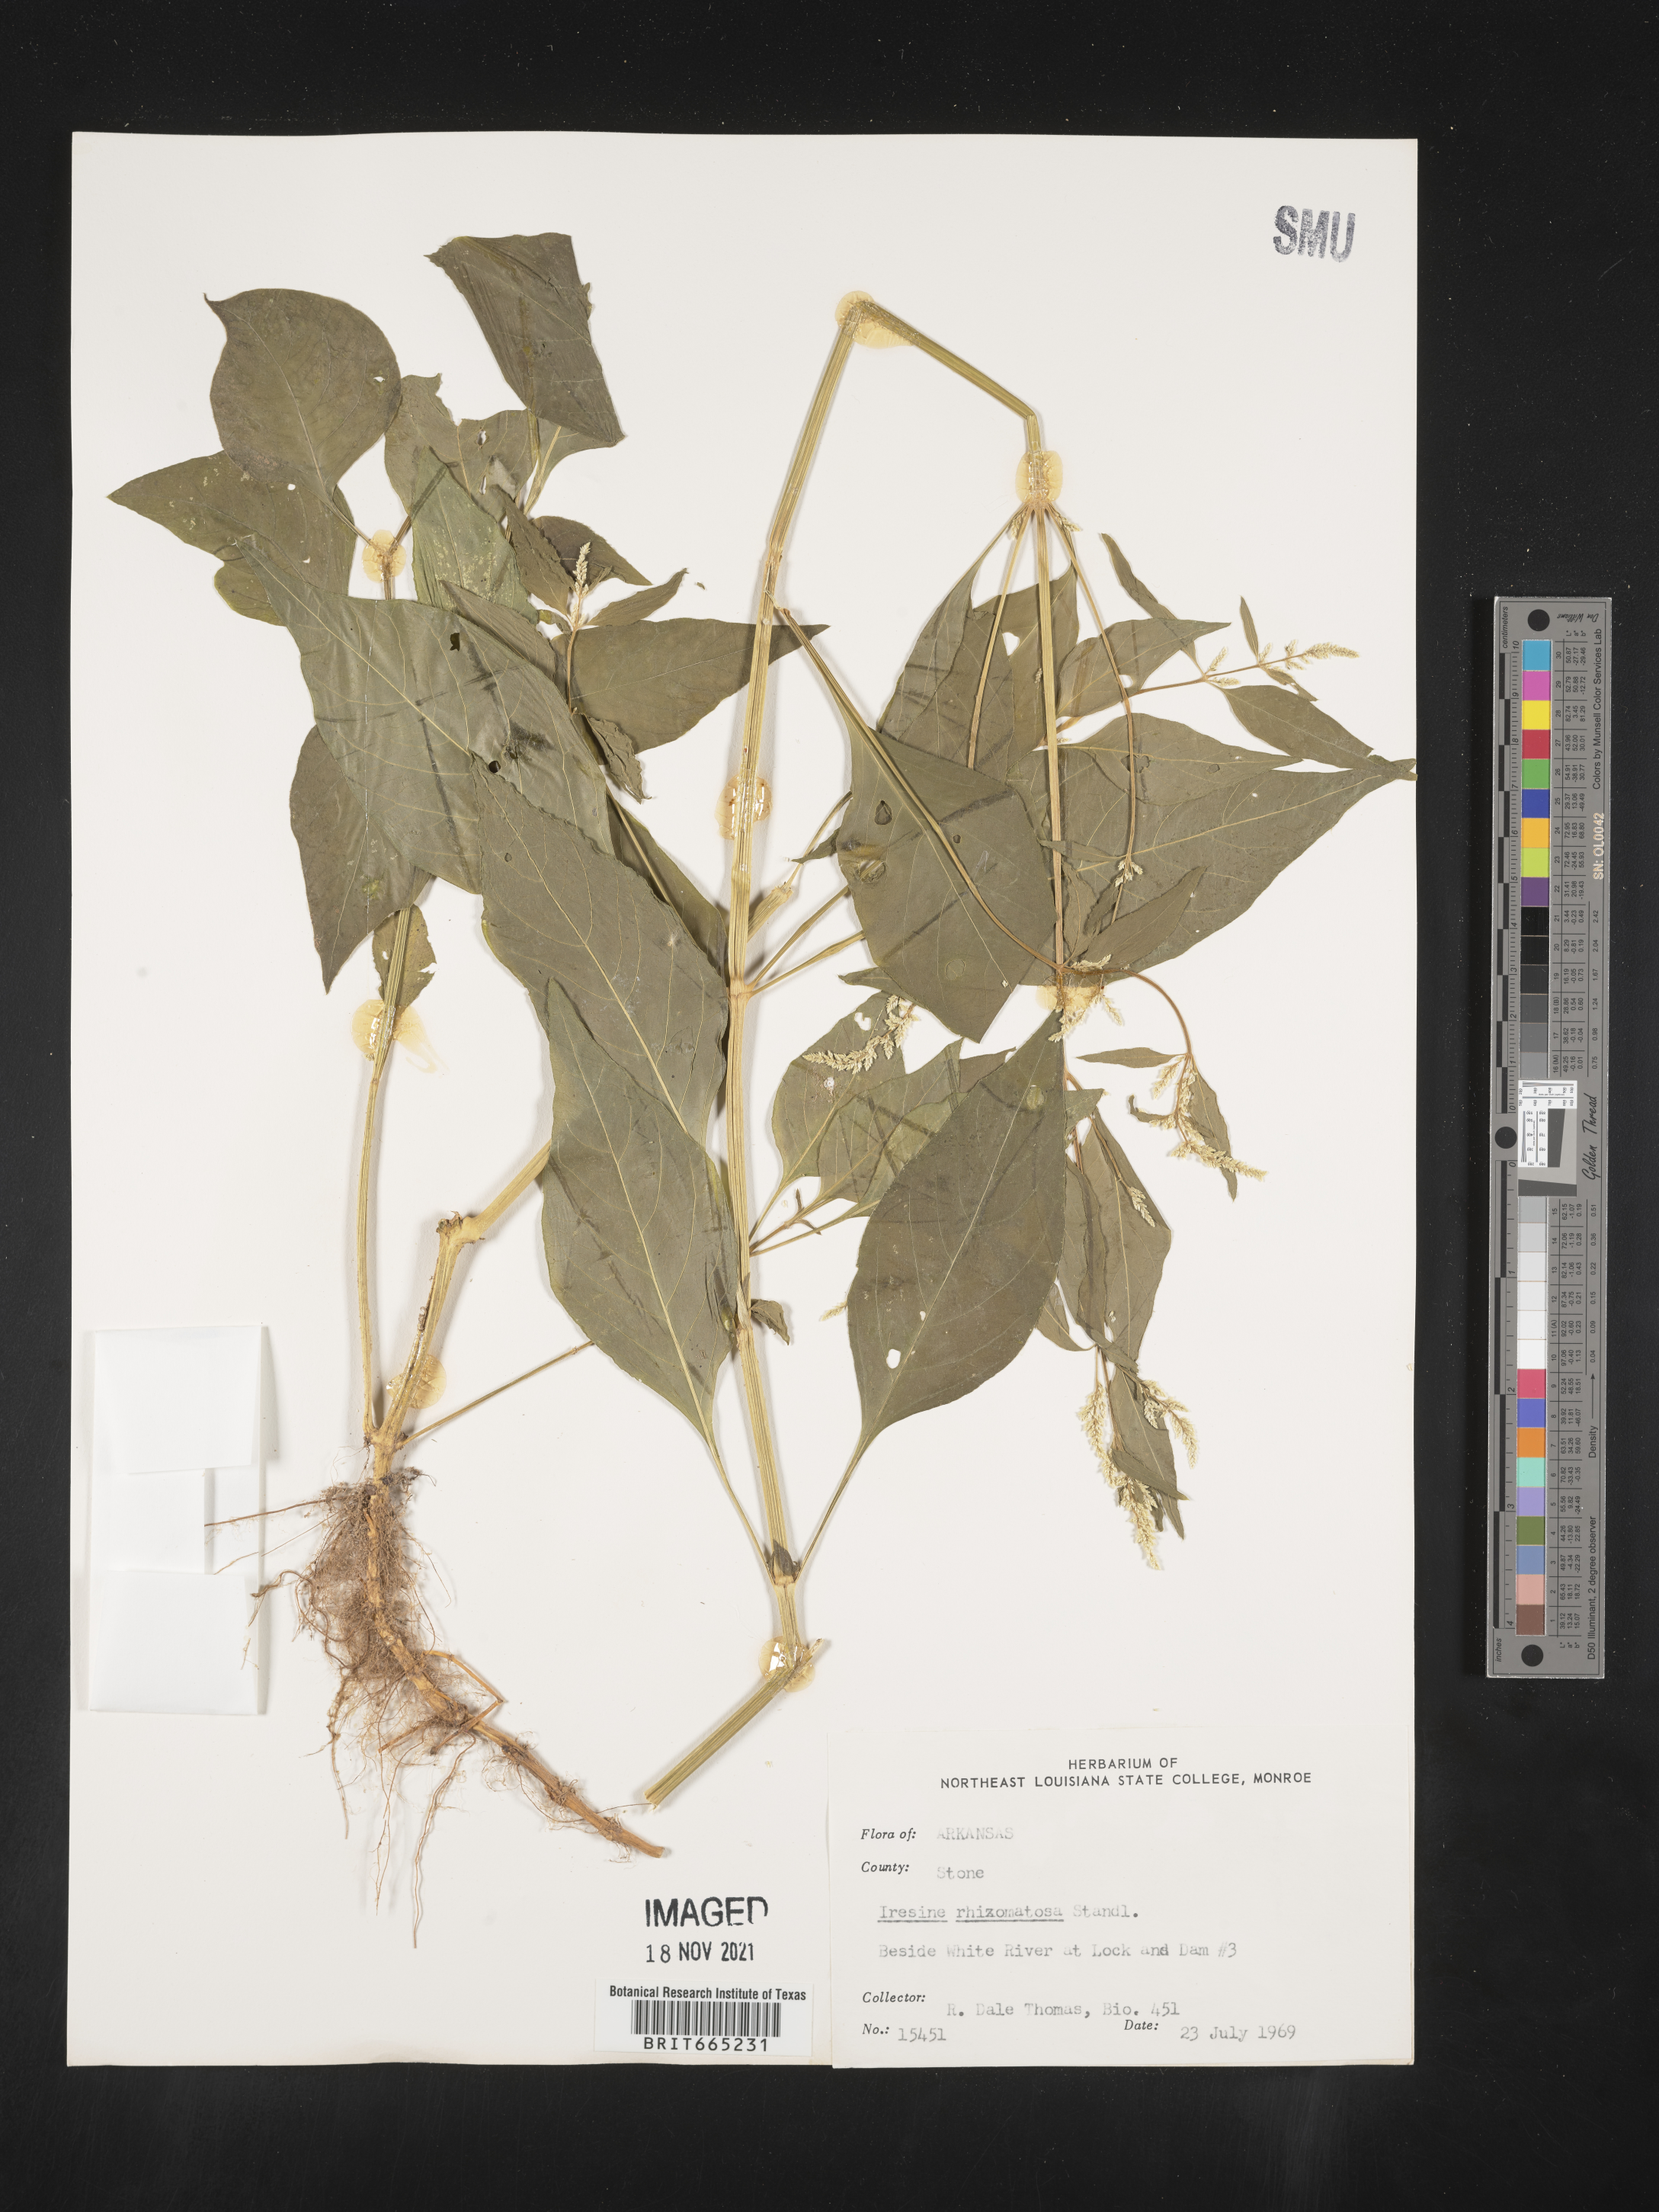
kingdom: Plantae
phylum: Tracheophyta
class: Magnoliopsida
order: Caryophyllales
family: Amaranthaceae
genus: Iresine
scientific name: Iresine rhizomatosa
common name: Juda's-bush
